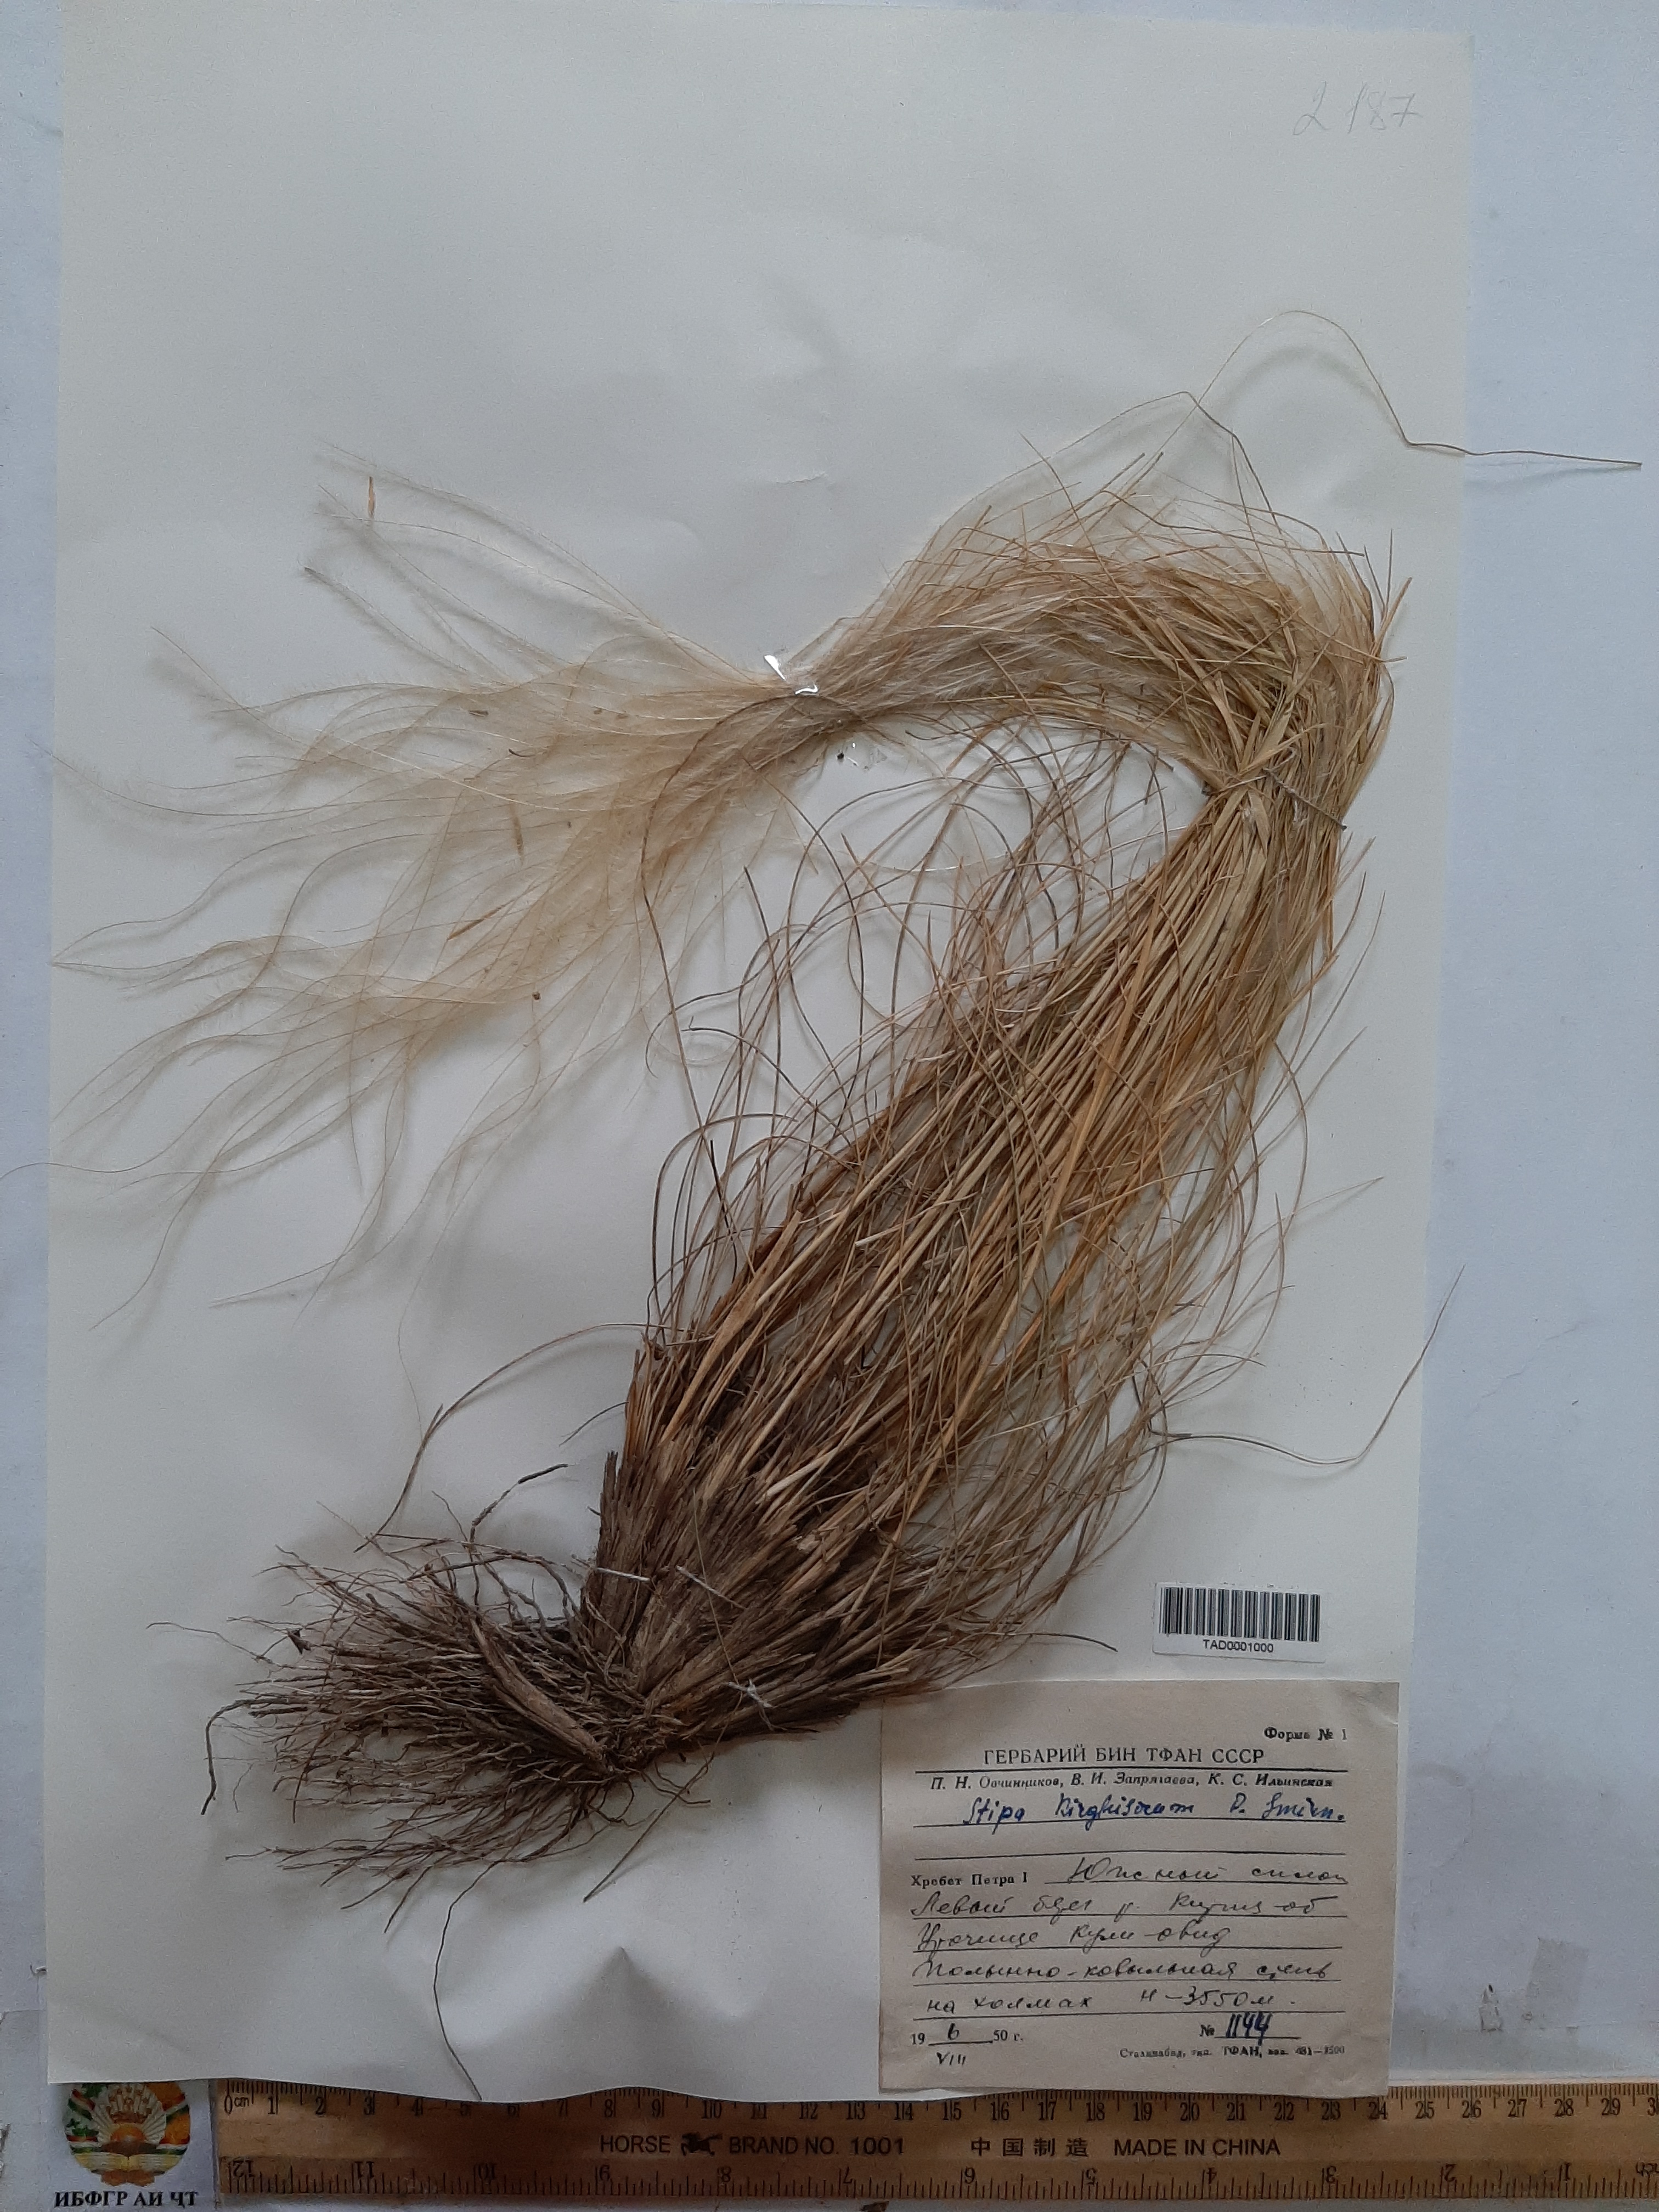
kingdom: Plantae
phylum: Tracheophyta
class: Liliopsida
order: Poales
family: Poaceae
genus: Stipa
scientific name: Stipa kirghisorum
